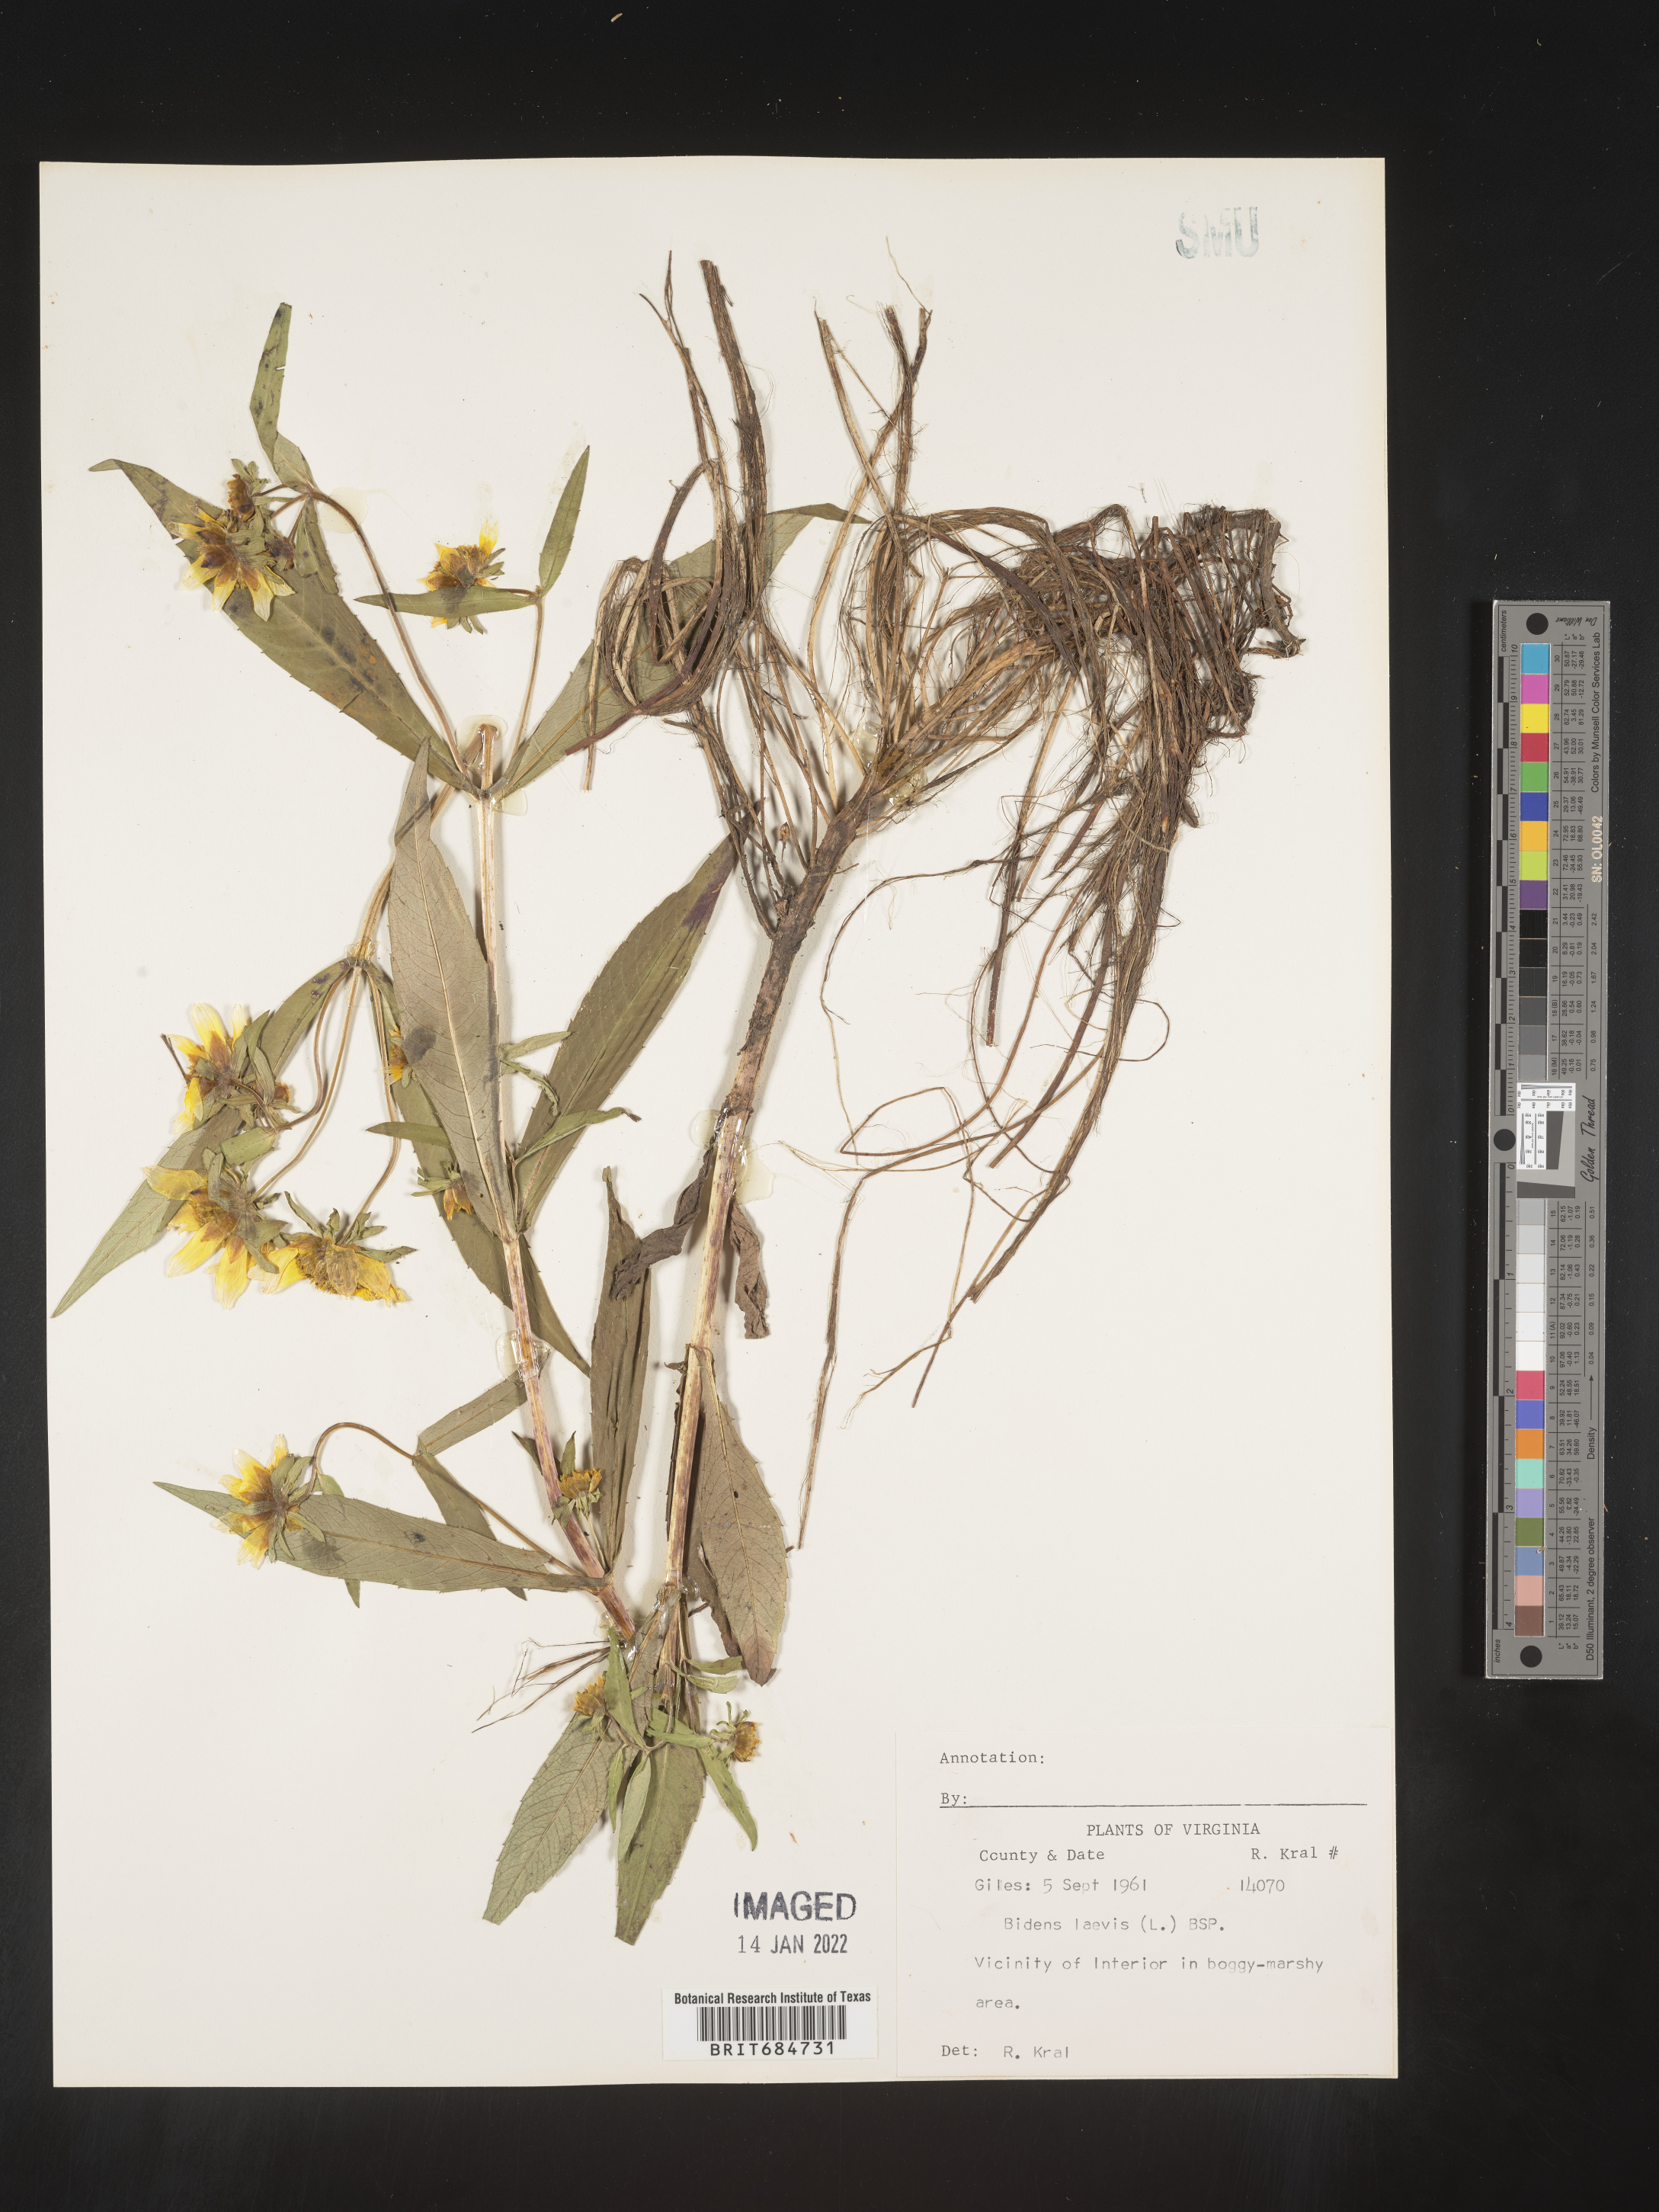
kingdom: Plantae
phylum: Tracheophyta
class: Magnoliopsida
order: Asterales
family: Asteraceae
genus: Bidens
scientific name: Bidens laevis
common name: Larger bur-marigold
